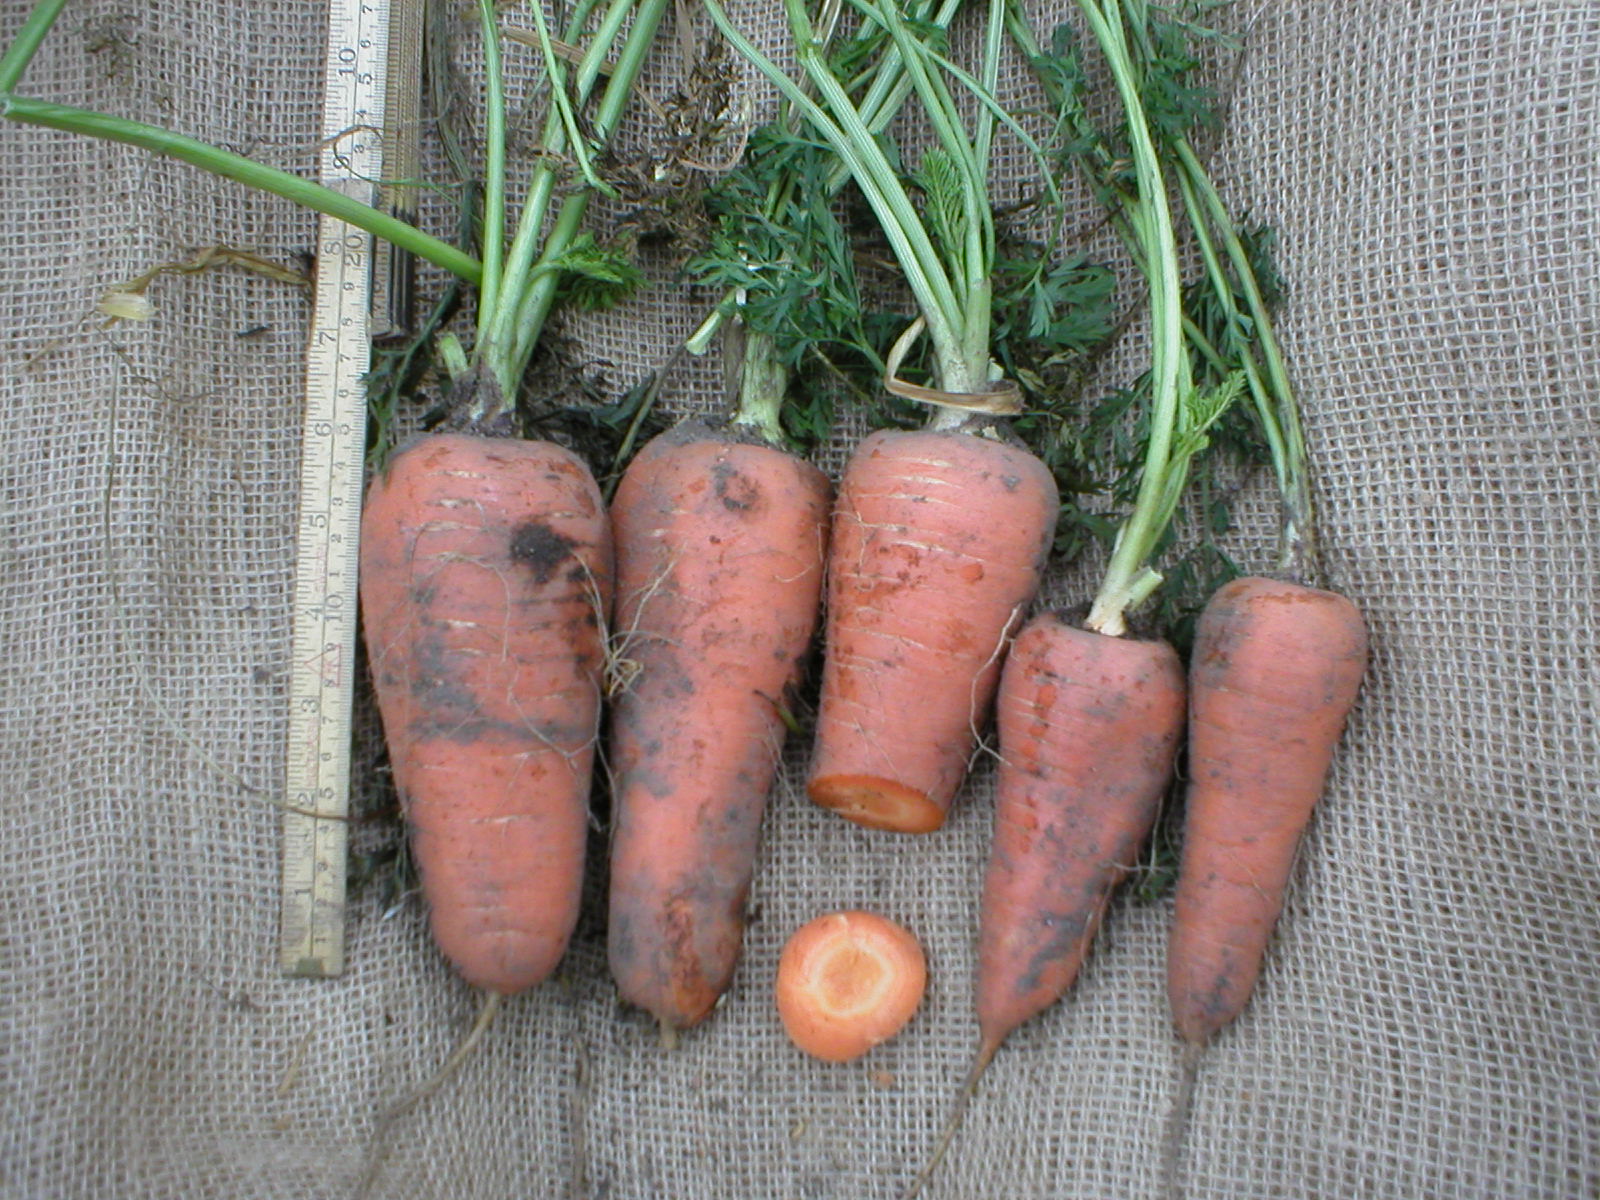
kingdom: Plantae
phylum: Tracheophyta
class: Magnoliopsida
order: Apiales
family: Apiaceae
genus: Daucus
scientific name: Daucus carota
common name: Wild carrot
